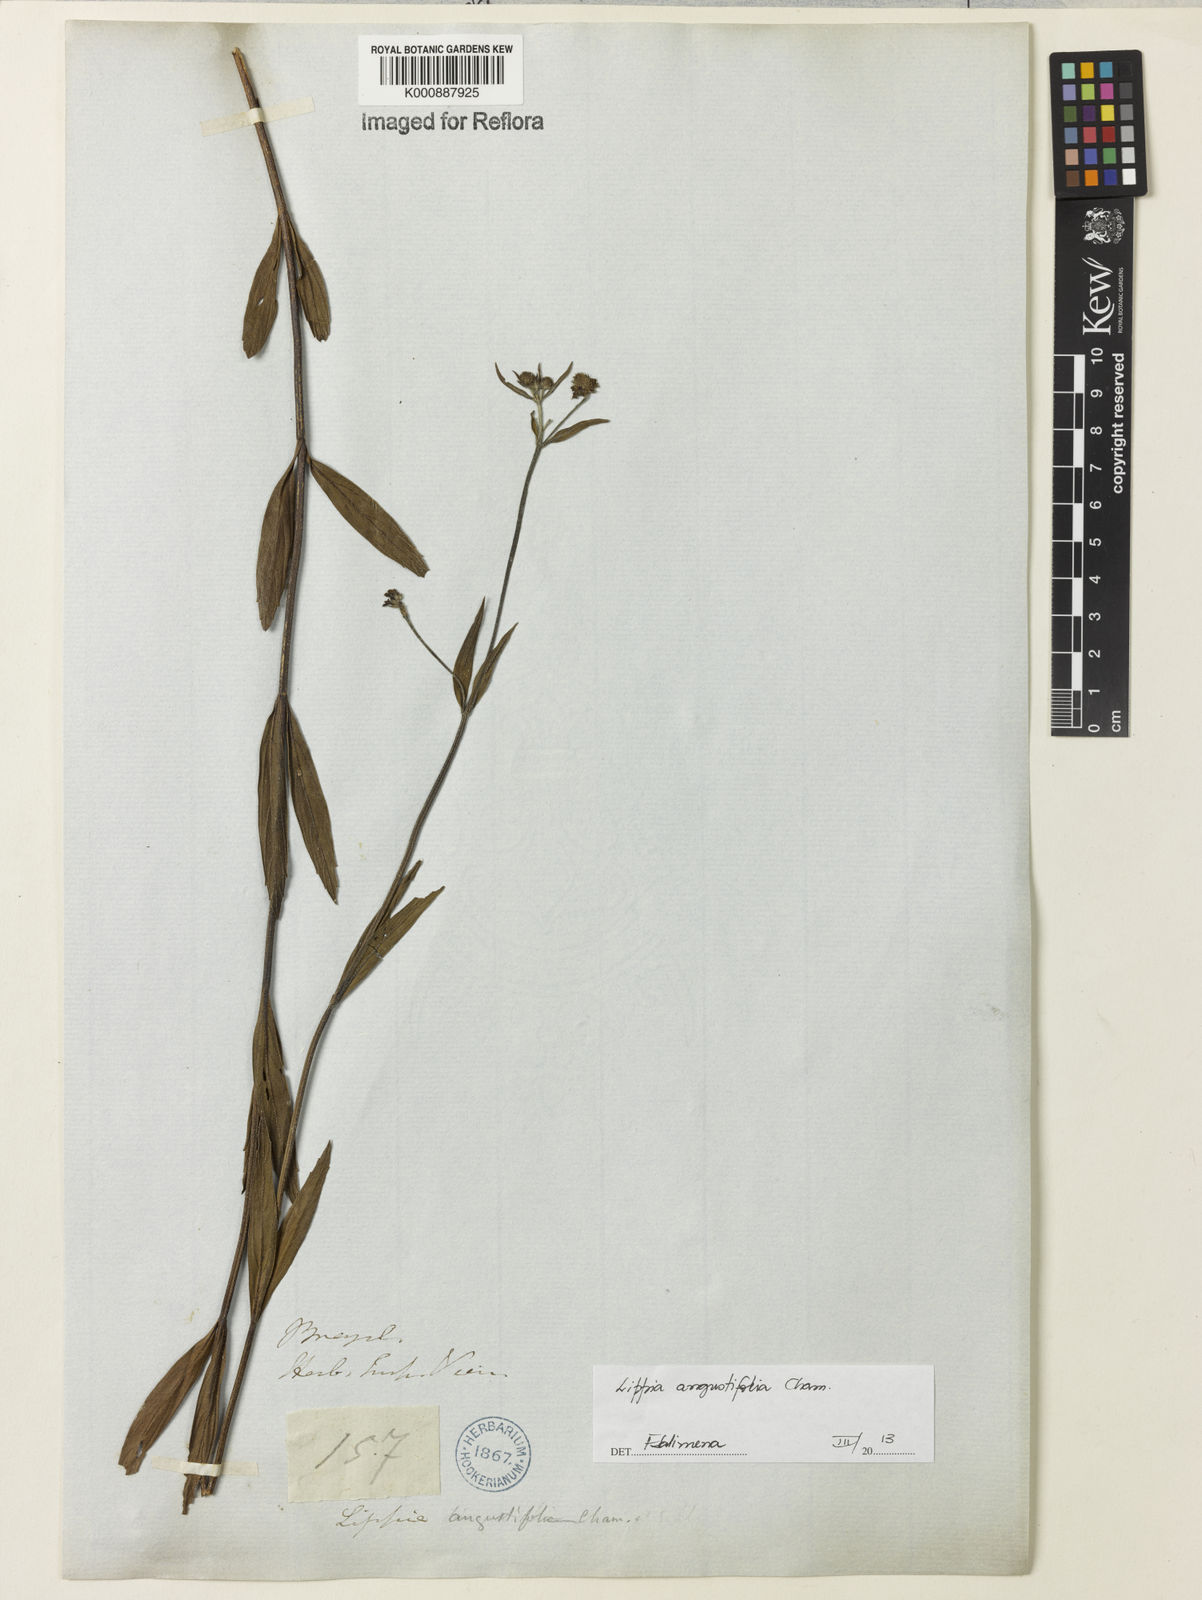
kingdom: Plantae
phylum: Tracheophyta
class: Magnoliopsida
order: Lamiales
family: Verbenaceae
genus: Lippia
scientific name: Lippia angustifolia
